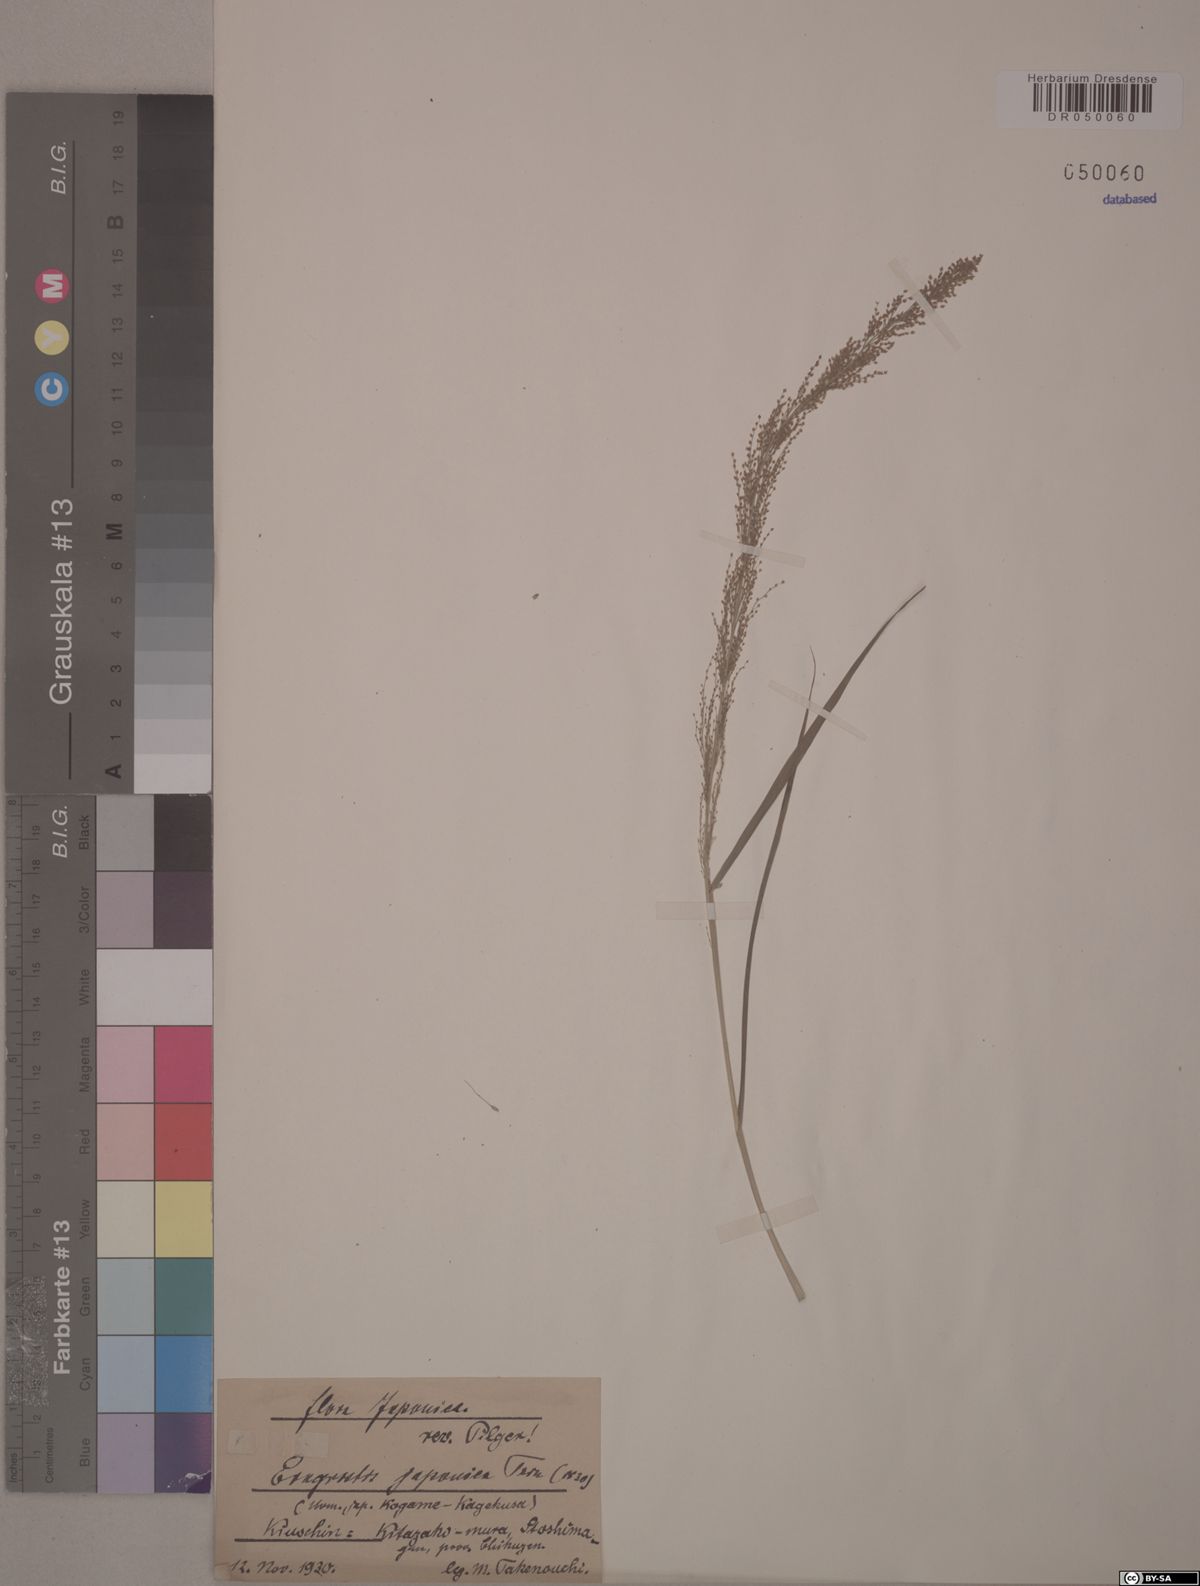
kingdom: Plantae
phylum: Tracheophyta
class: Liliopsida
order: Poales
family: Poaceae
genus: Eragrostis
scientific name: Eragrostis japonica
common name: Pond lovegrass
